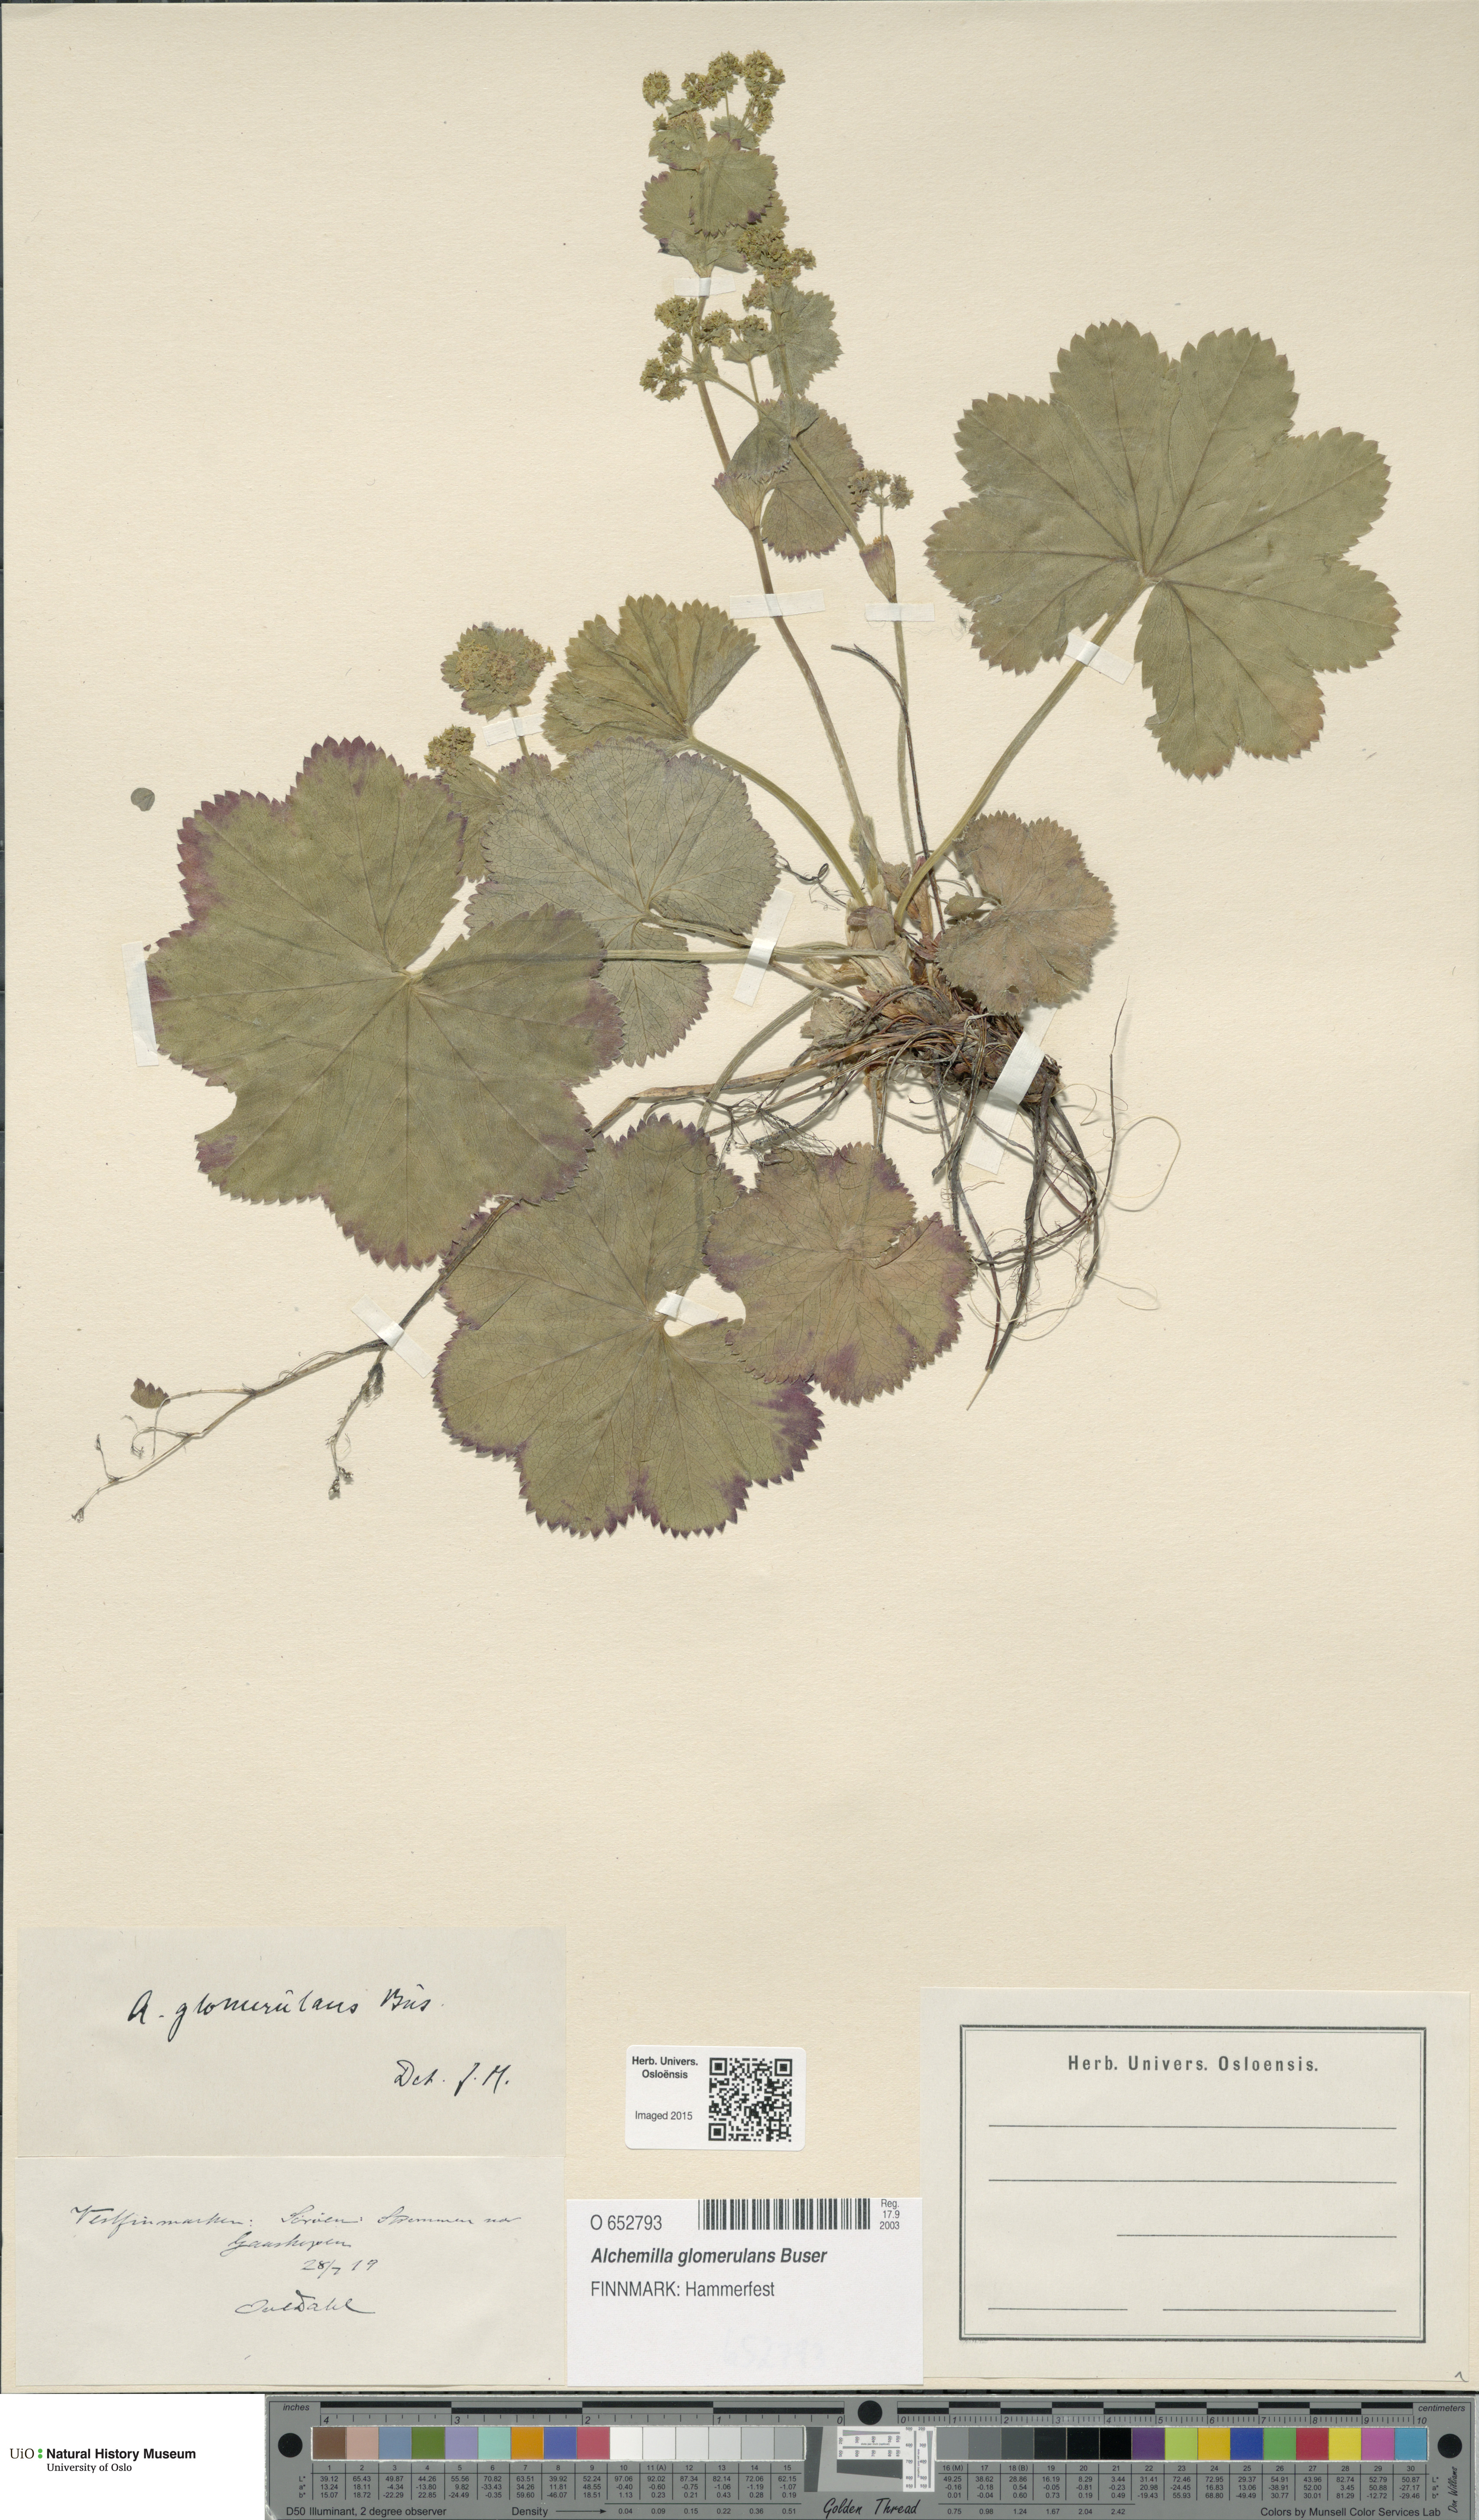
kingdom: Plantae
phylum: Tracheophyta
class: Magnoliopsida
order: Rosales
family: Rosaceae
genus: Alchemilla
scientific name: Alchemilla glomerulans
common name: Clustered lady's mantle
